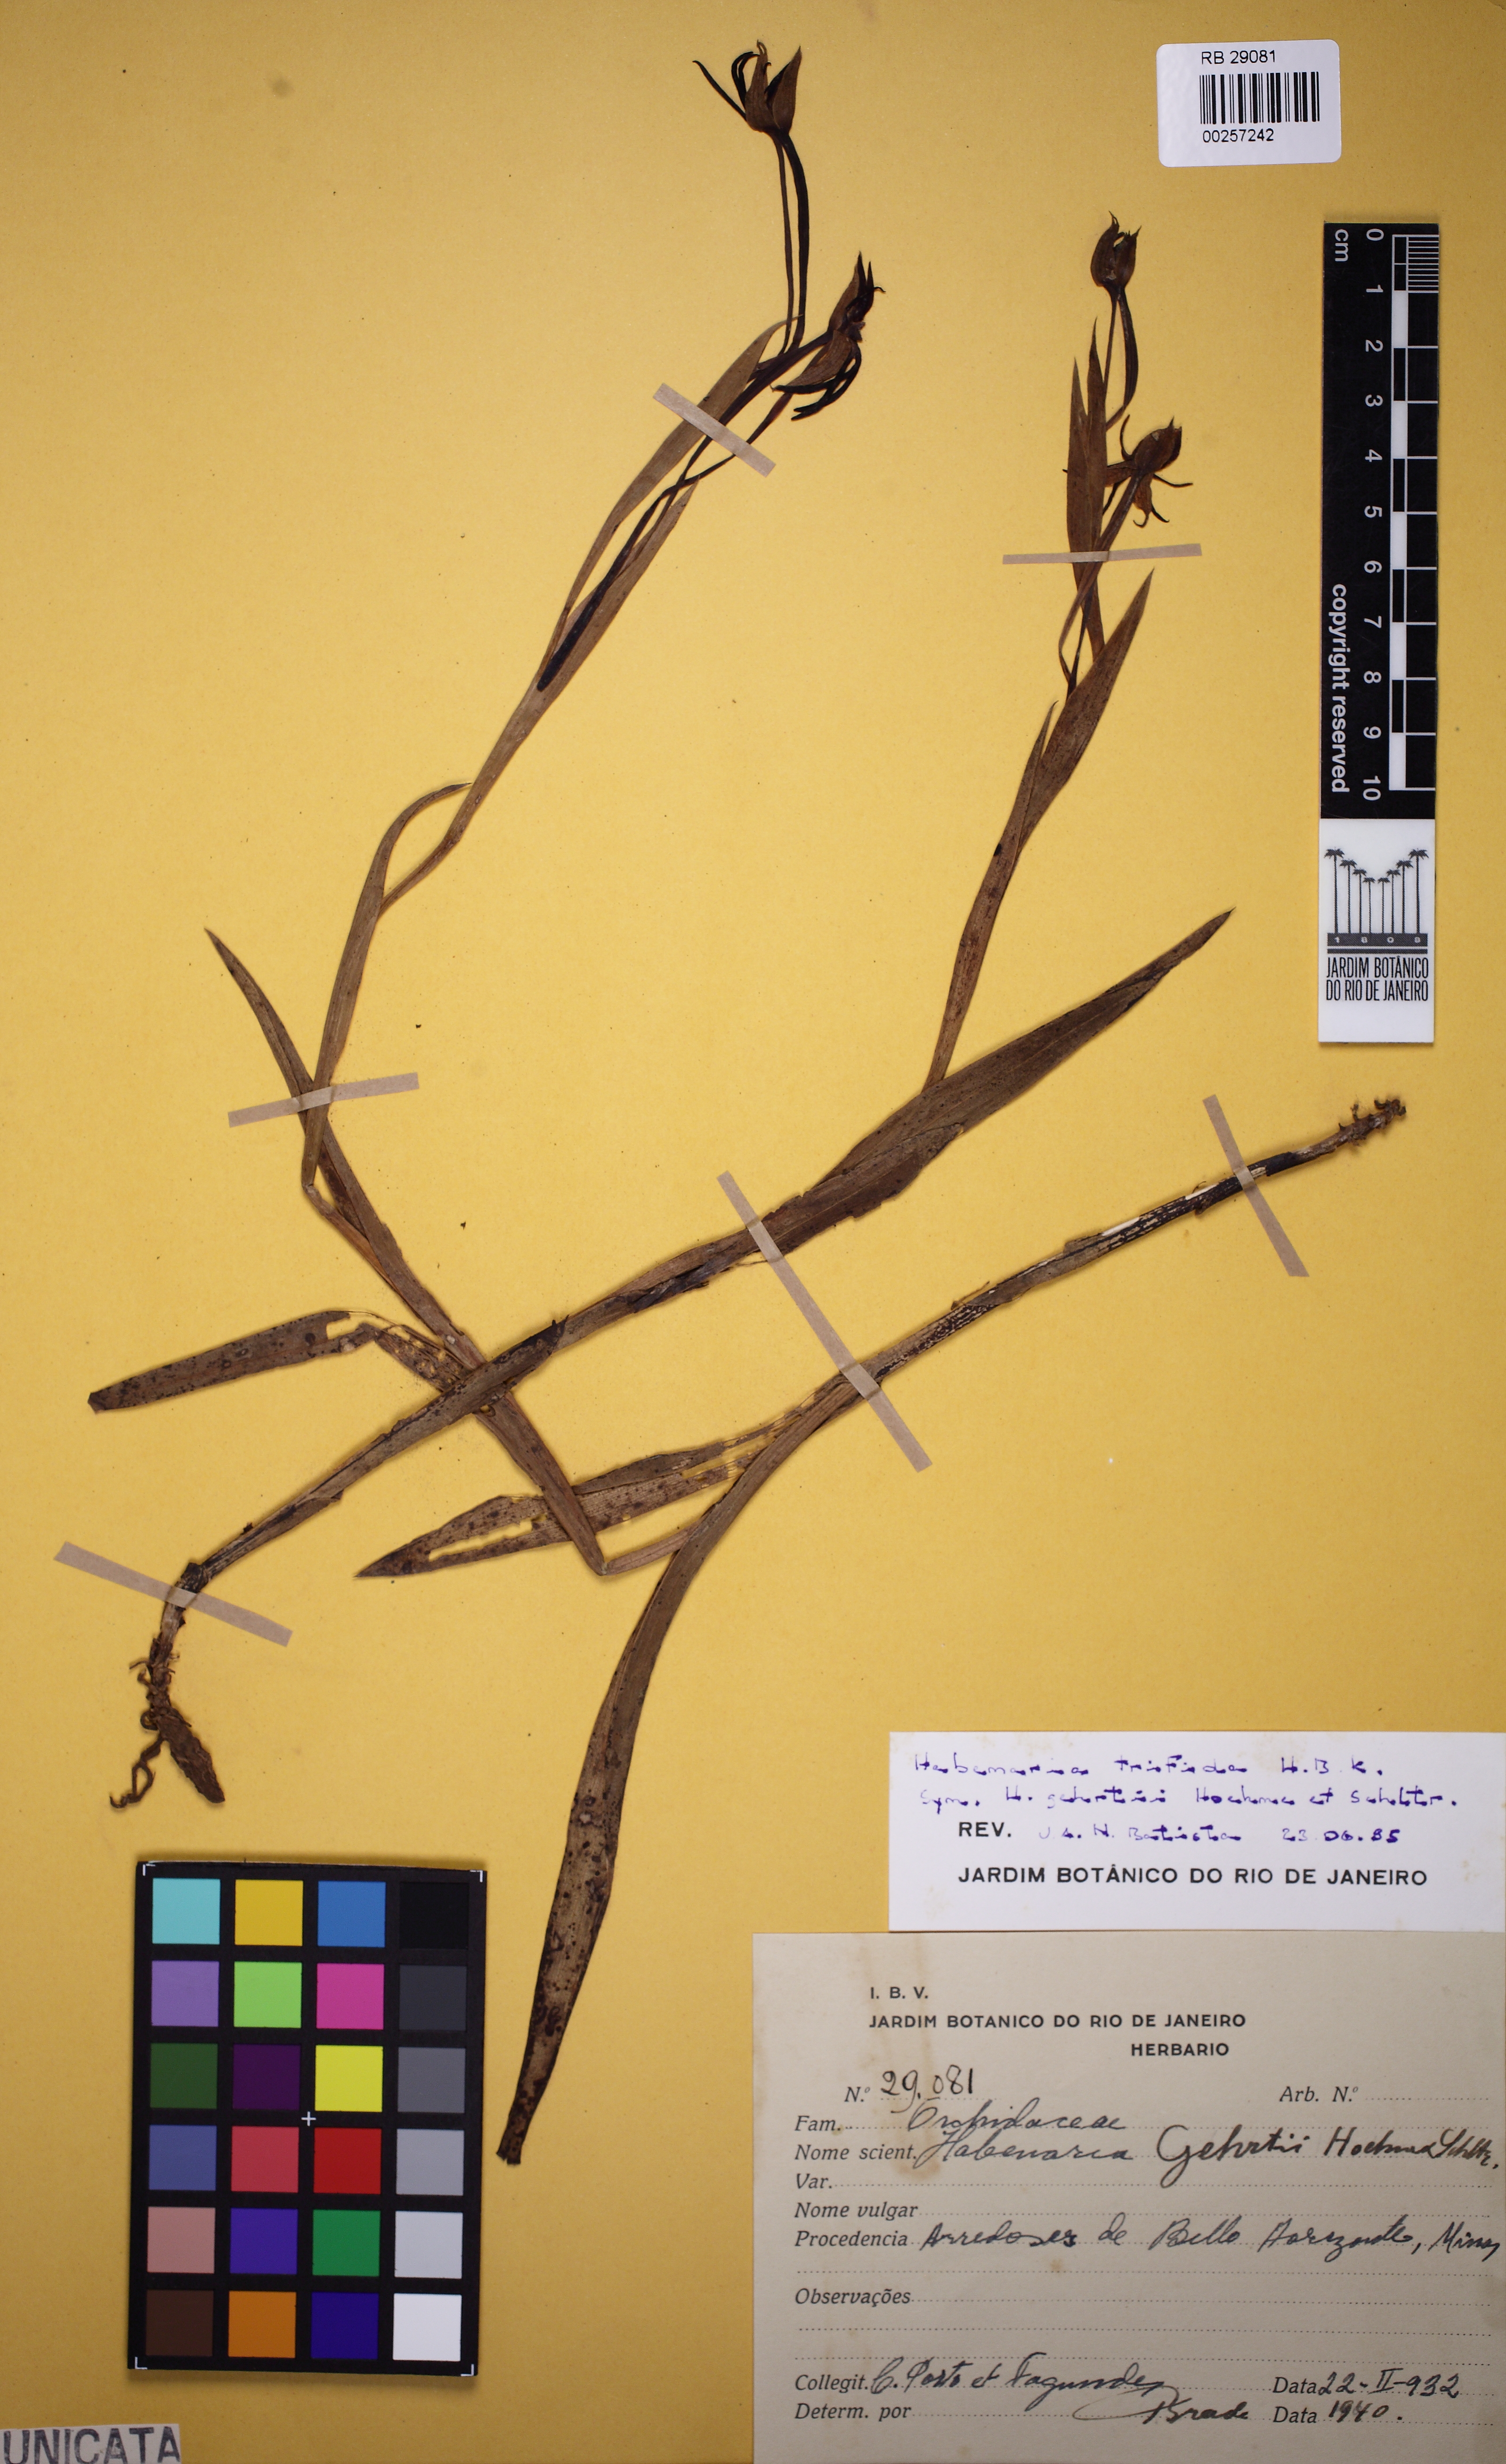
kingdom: Plantae
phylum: Tracheophyta
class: Liliopsida
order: Asparagales
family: Orchidaceae
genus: Habenaria
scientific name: Habenaria trifida
